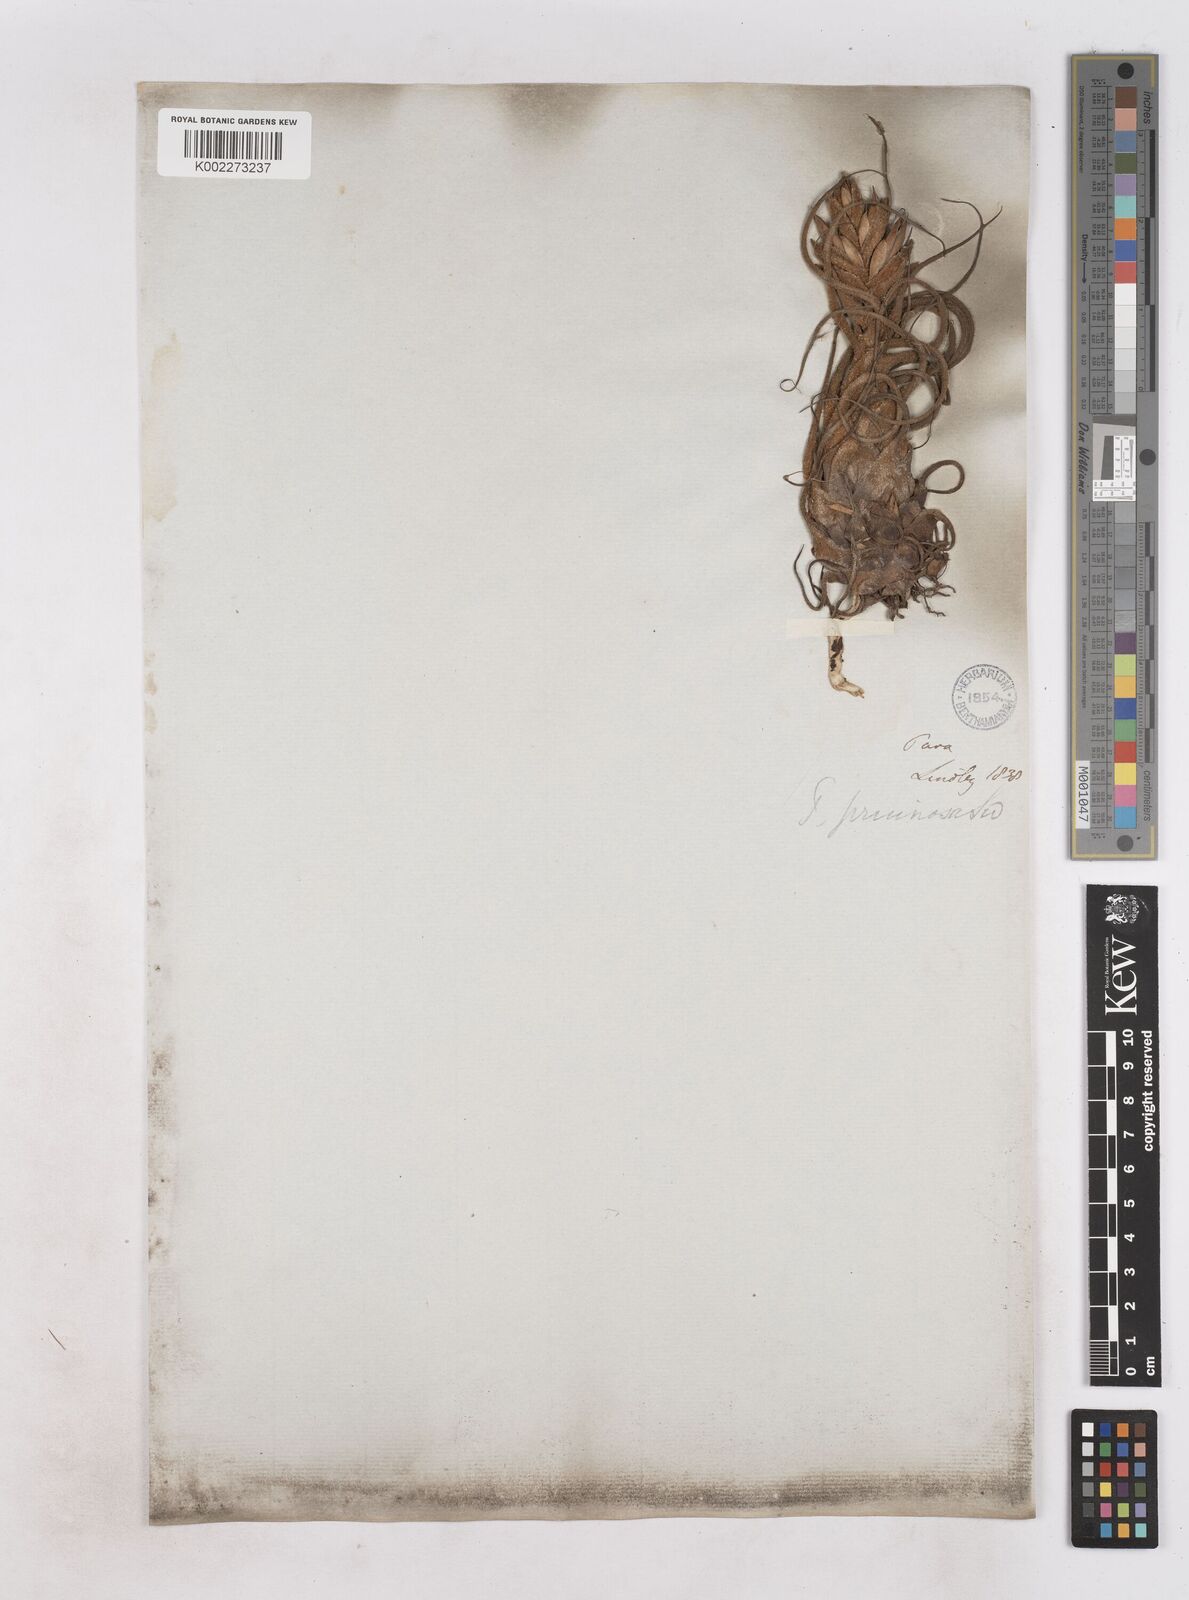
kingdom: Plantae
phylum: Tracheophyta
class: Liliopsida
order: Poales
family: Bromeliaceae
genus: Tillandsia
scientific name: Tillandsia pruinosa
